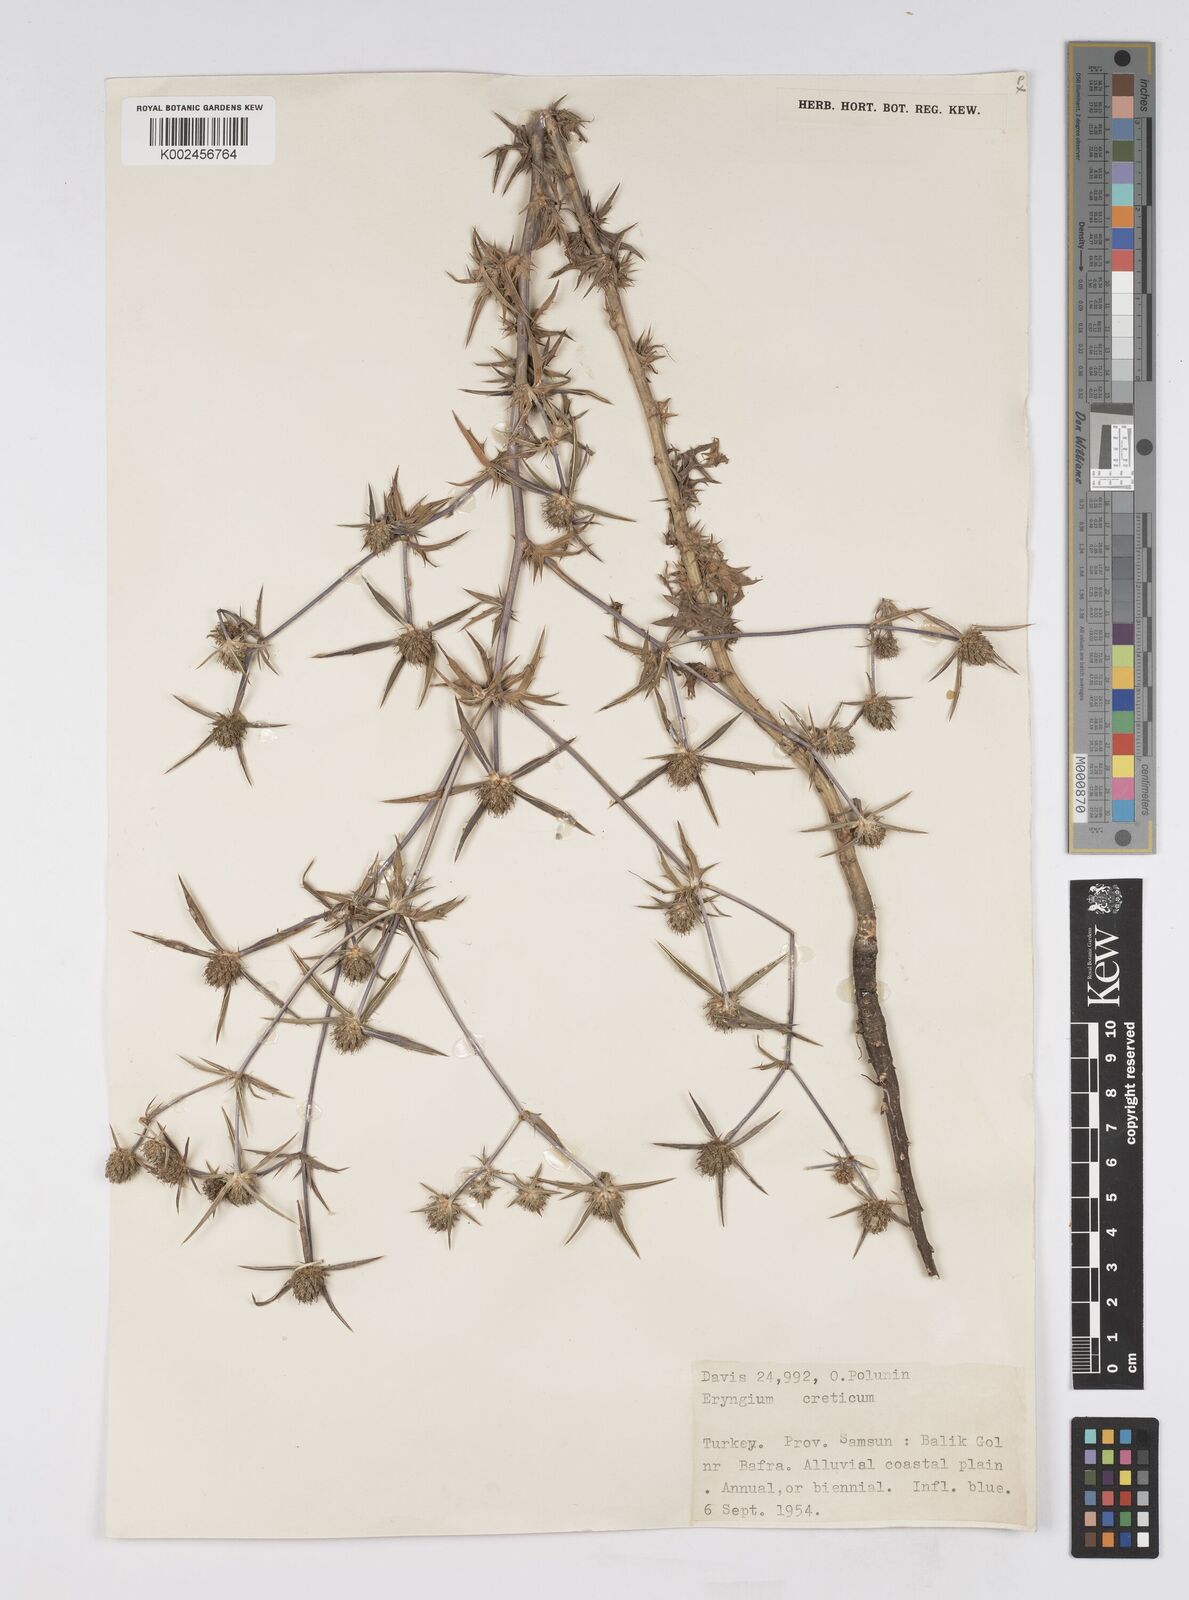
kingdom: Plantae
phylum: Tracheophyta
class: Magnoliopsida
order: Apiales
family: Apiaceae
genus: Eryngium
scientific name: Eryngium creticum
